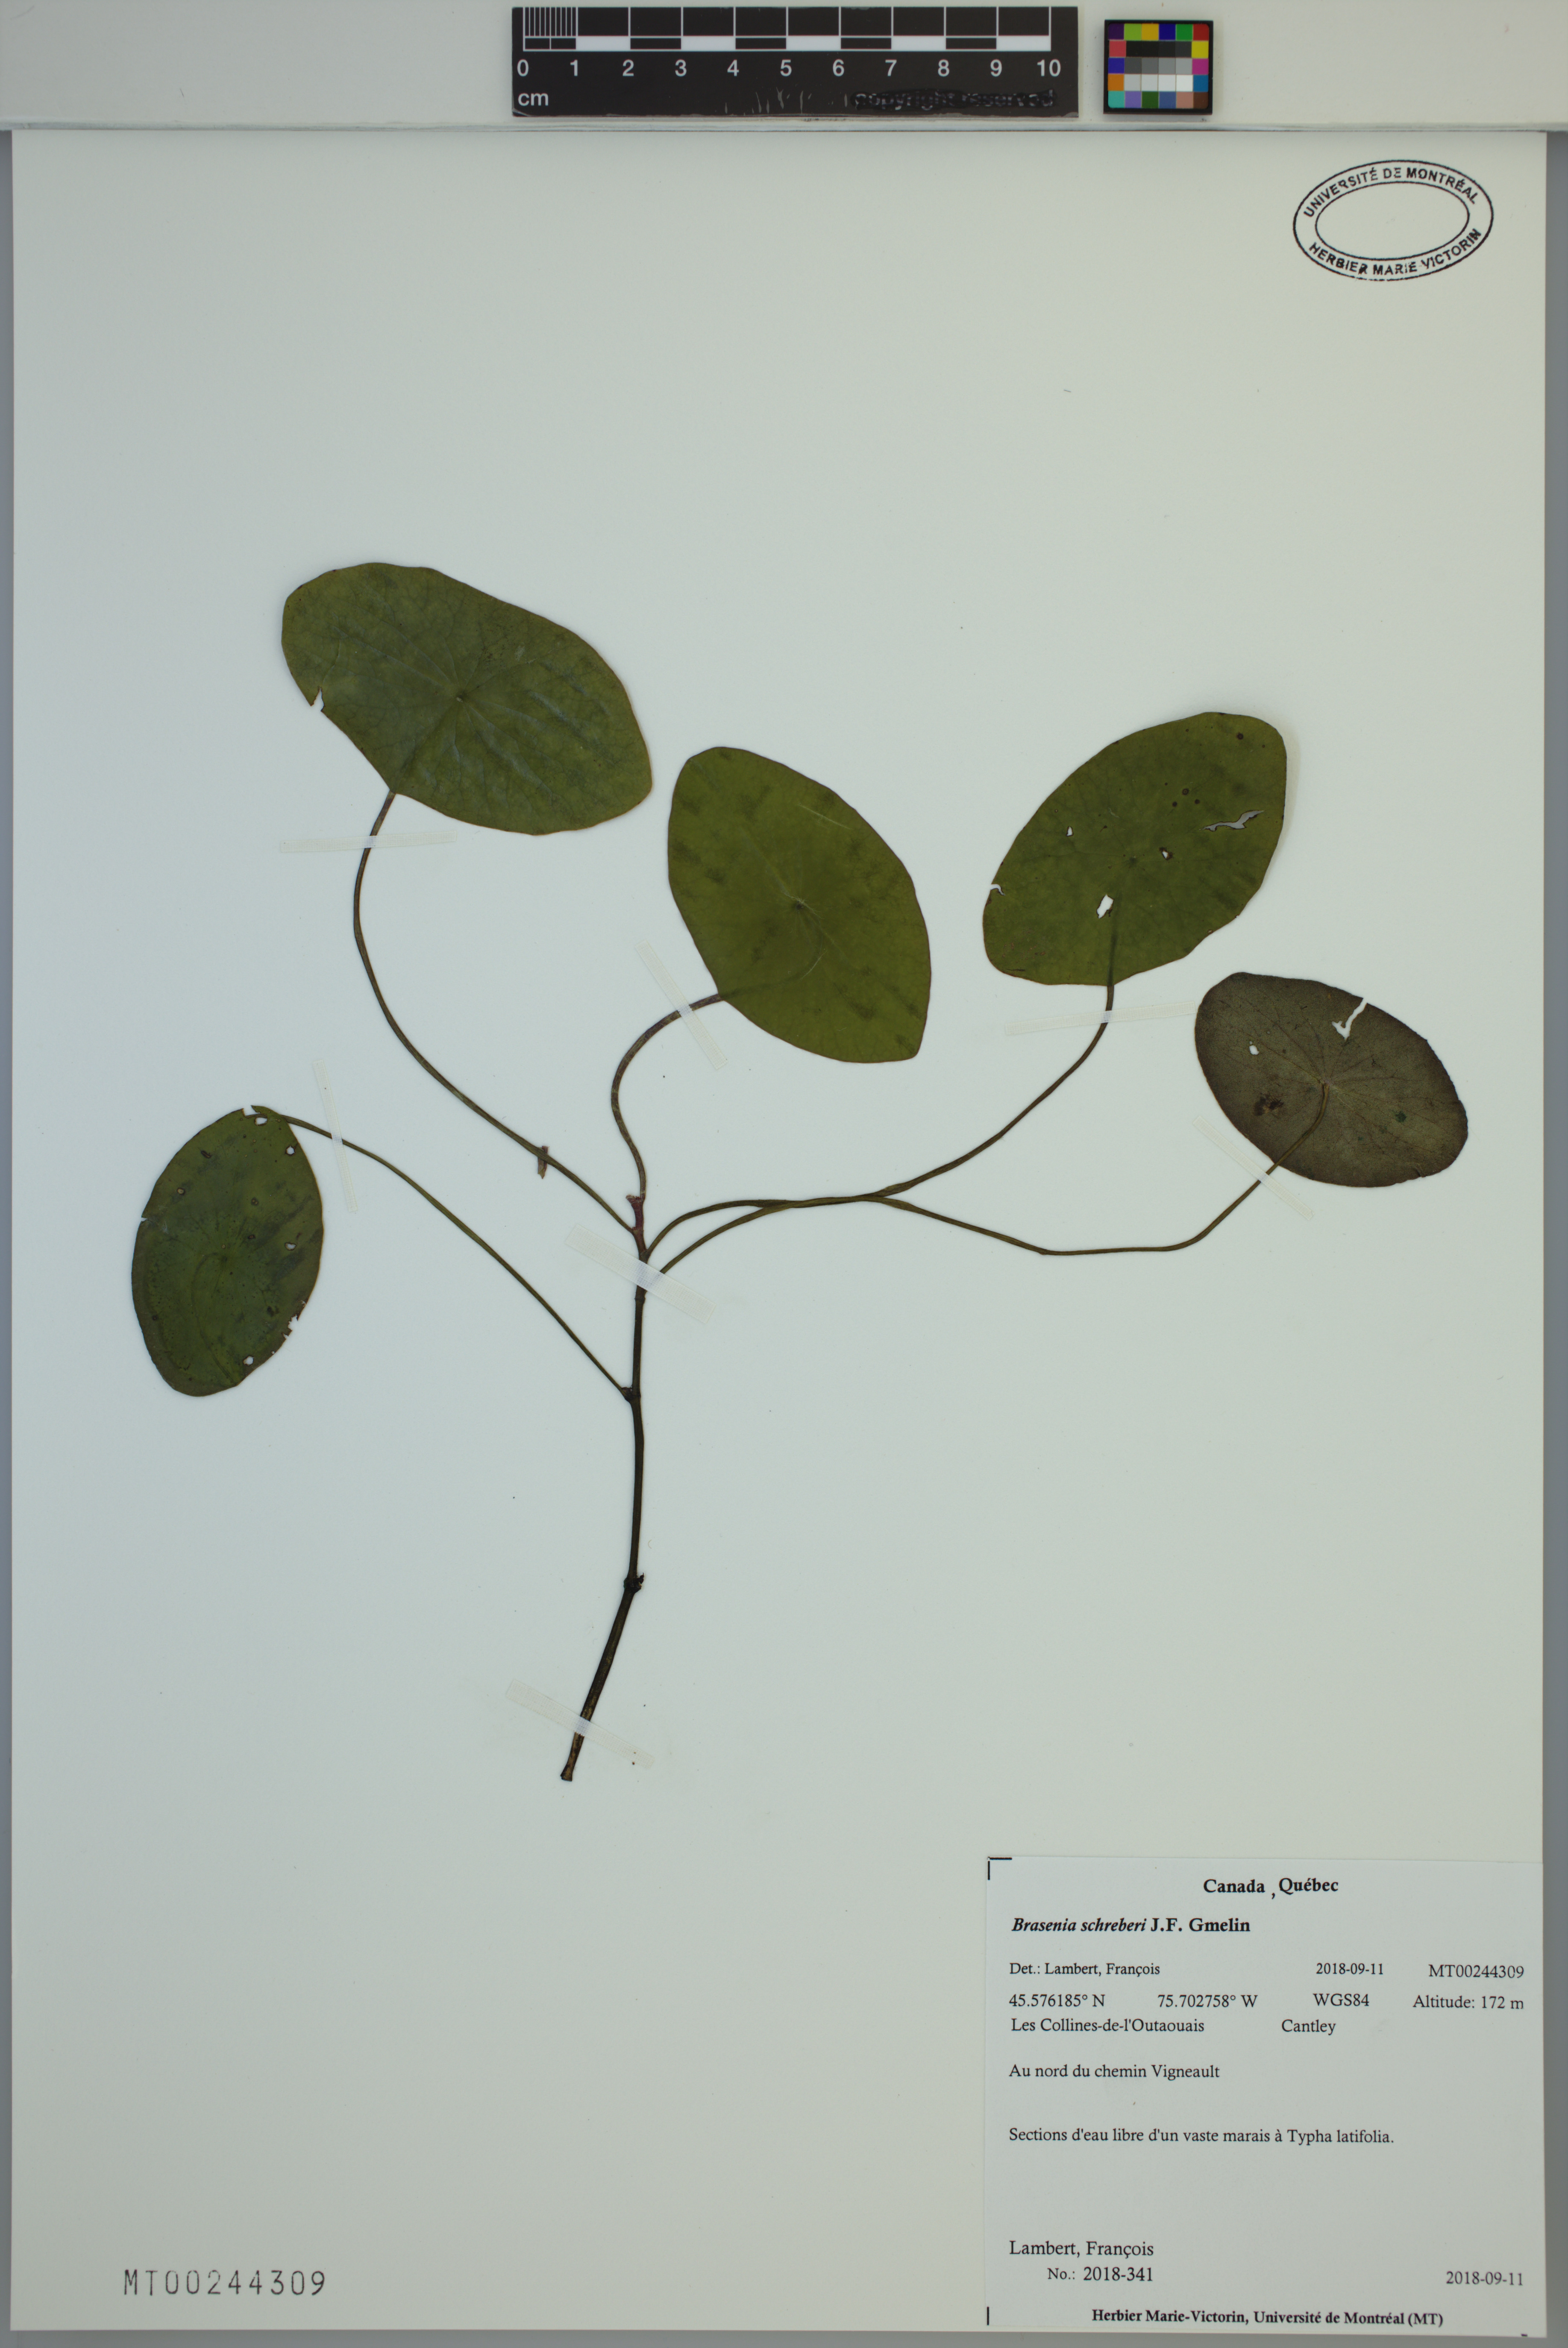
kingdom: Plantae
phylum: Tracheophyta
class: Magnoliopsida
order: Nymphaeales
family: Cabombaceae
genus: Brasenia
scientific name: Brasenia schreberi
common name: Water-shield
